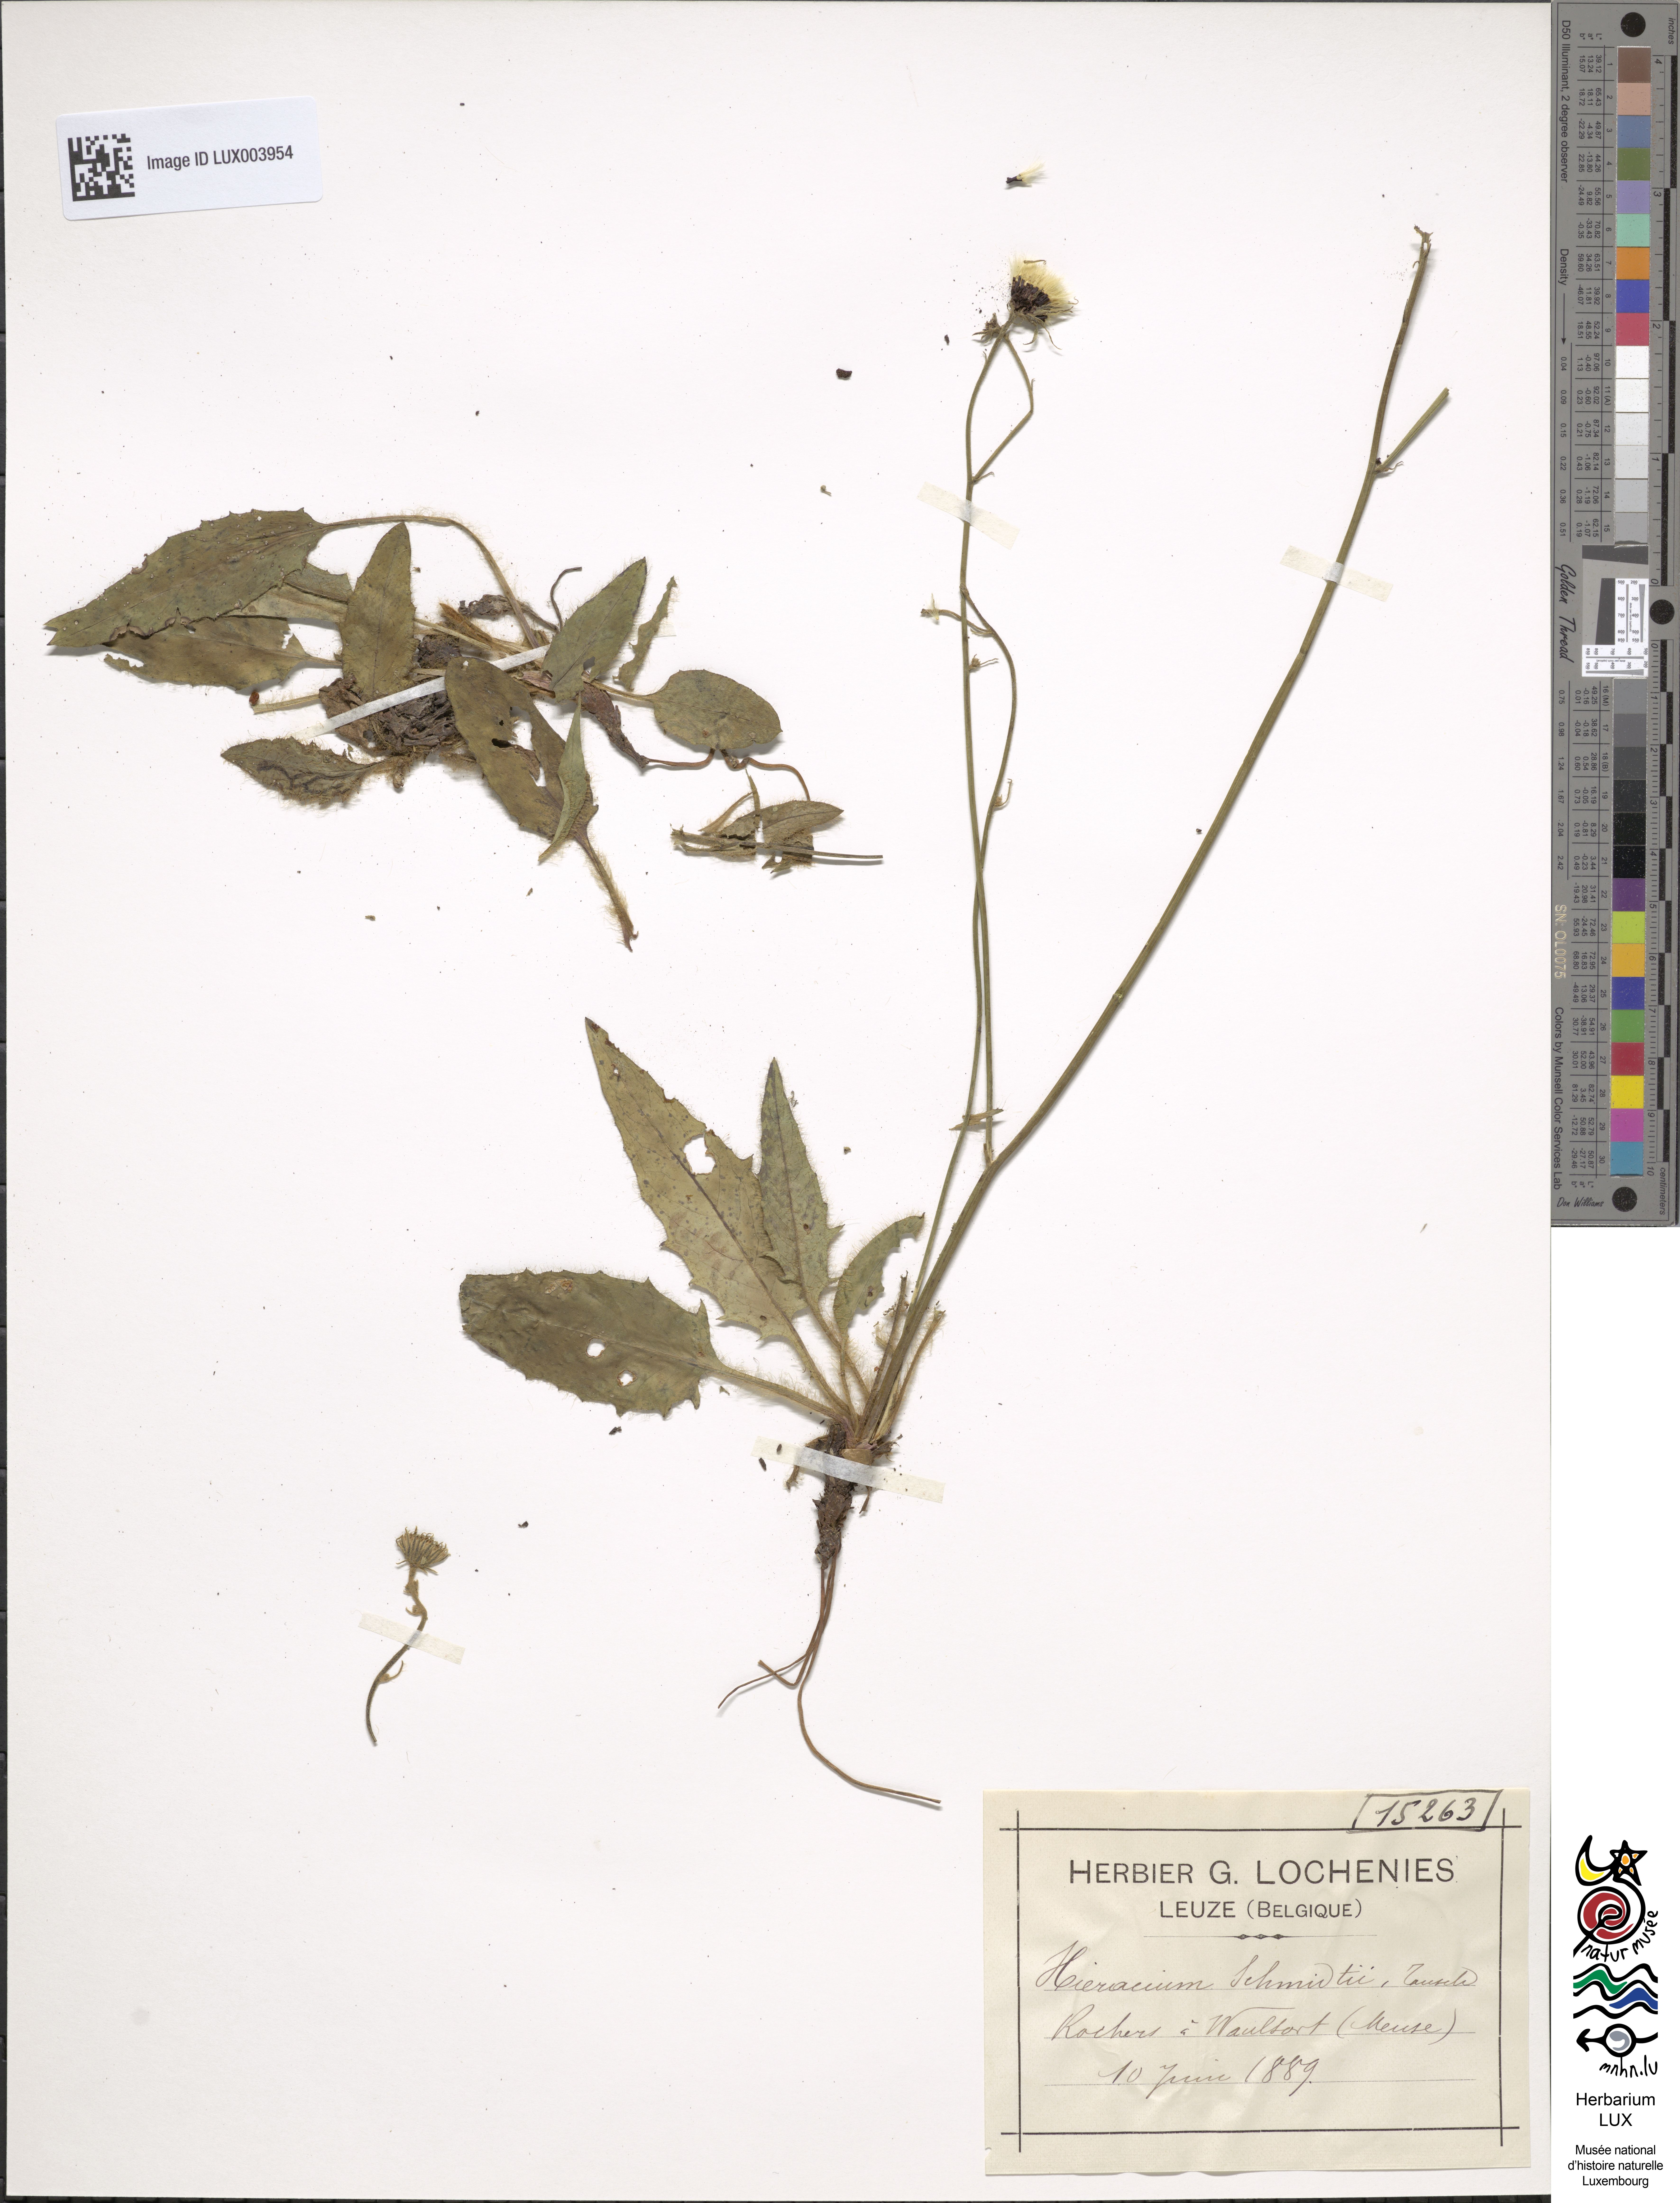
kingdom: Plantae
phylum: Tracheophyta
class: Magnoliopsida
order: Asterales
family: Asteraceae
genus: Hieracium
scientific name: Hieracium pallidum
